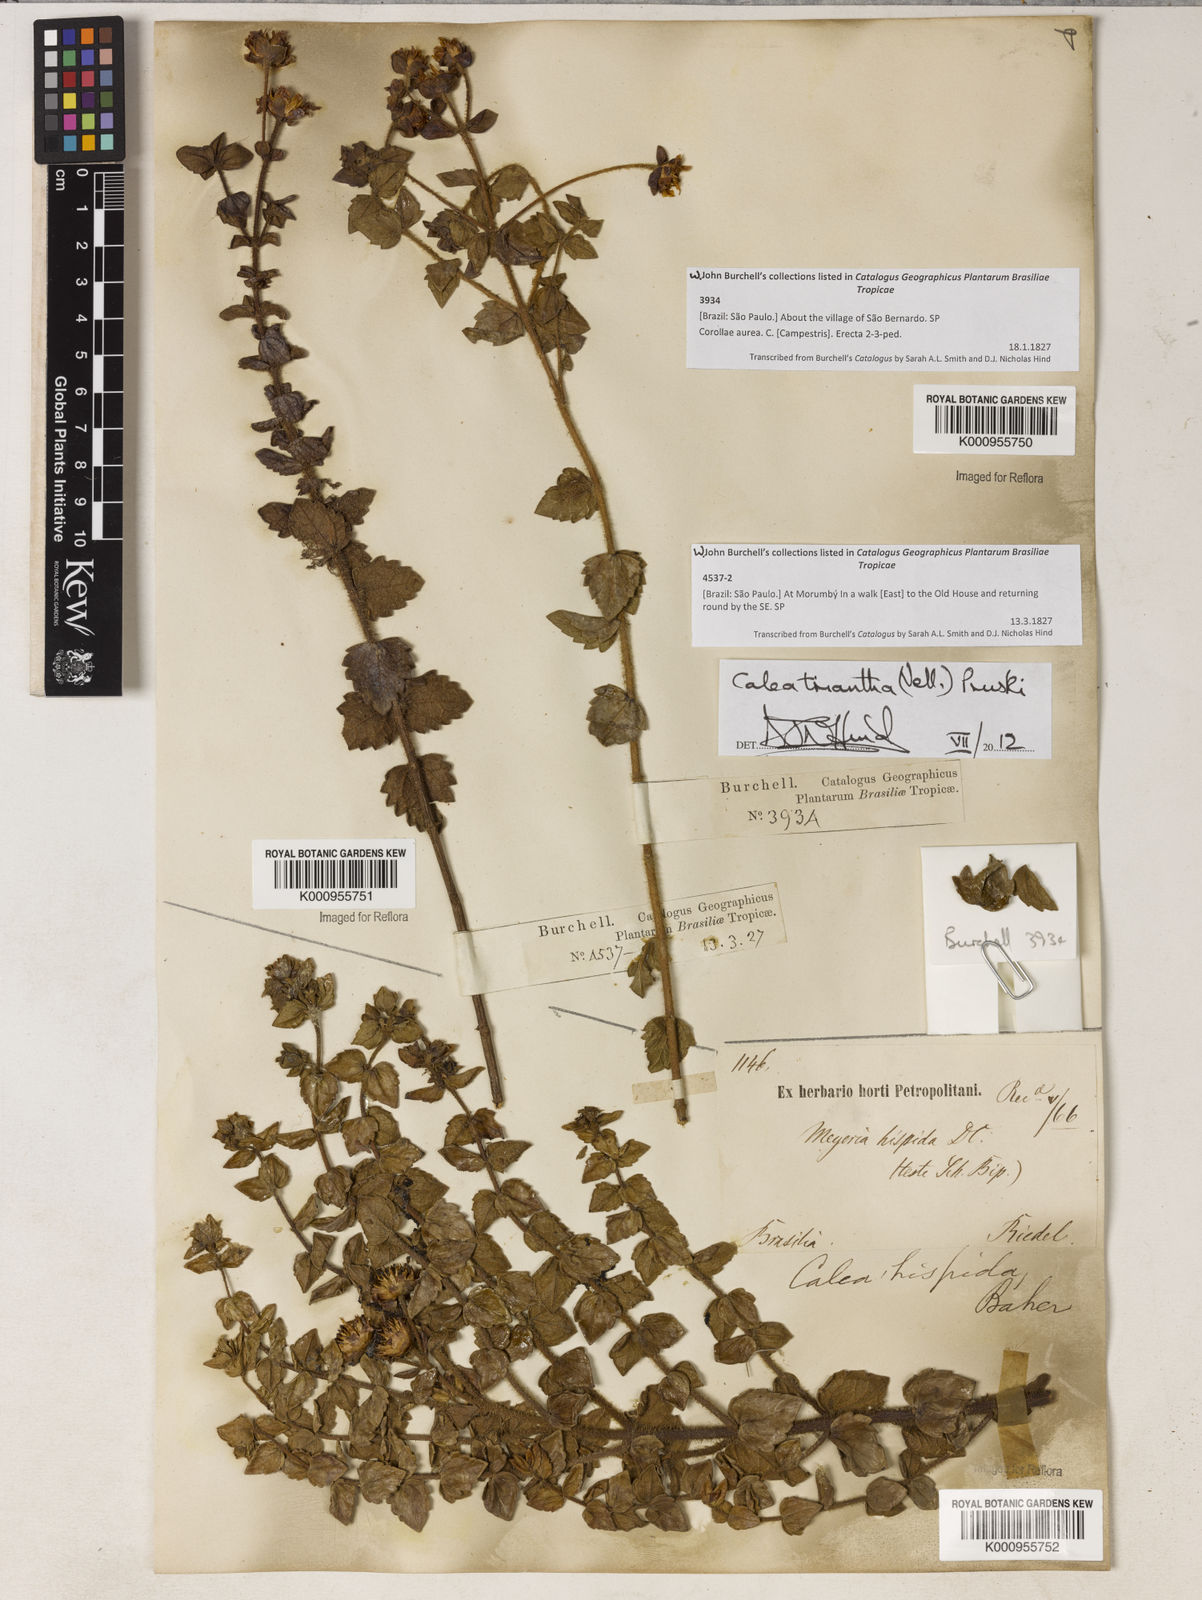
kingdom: Plantae
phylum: Tracheophyta
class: Magnoliopsida
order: Asterales
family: Asteraceae
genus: Calea
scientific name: Calea triantha
